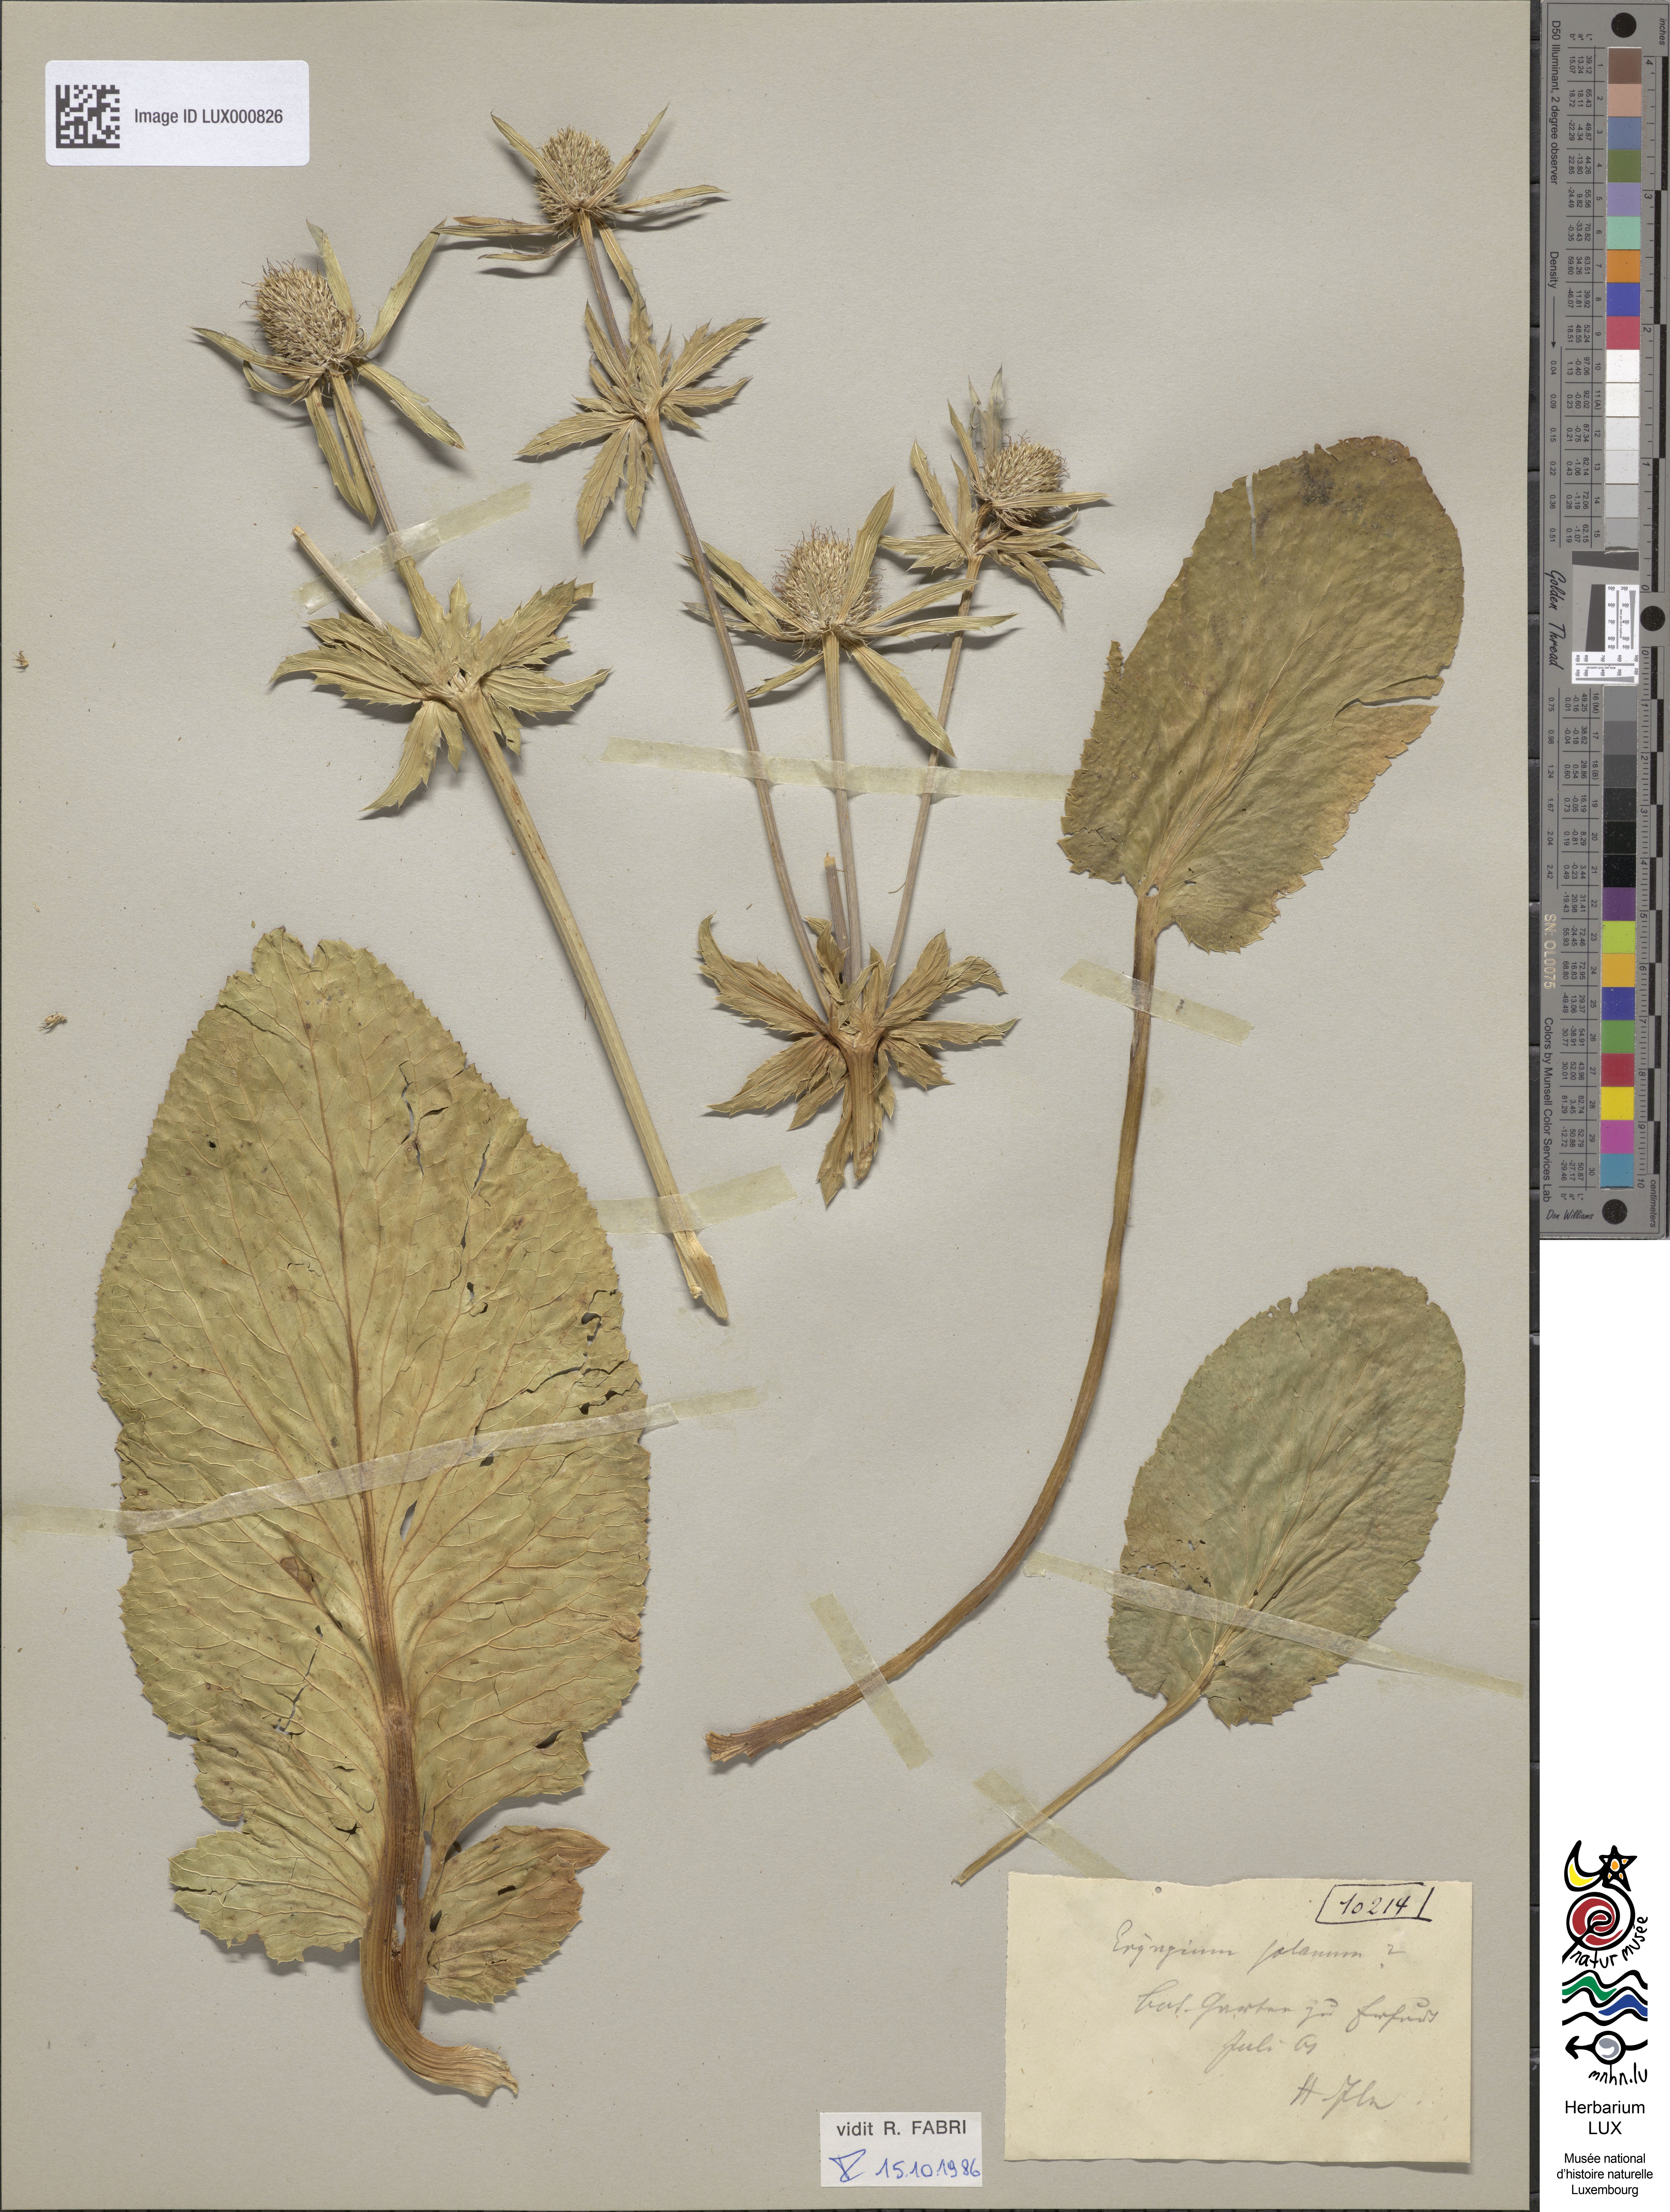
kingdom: Plantae
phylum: Tracheophyta
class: Magnoliopsida
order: Apiales
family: Apiaceae
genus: Eryngium
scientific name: Eryngium planum
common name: Blue eryngo
